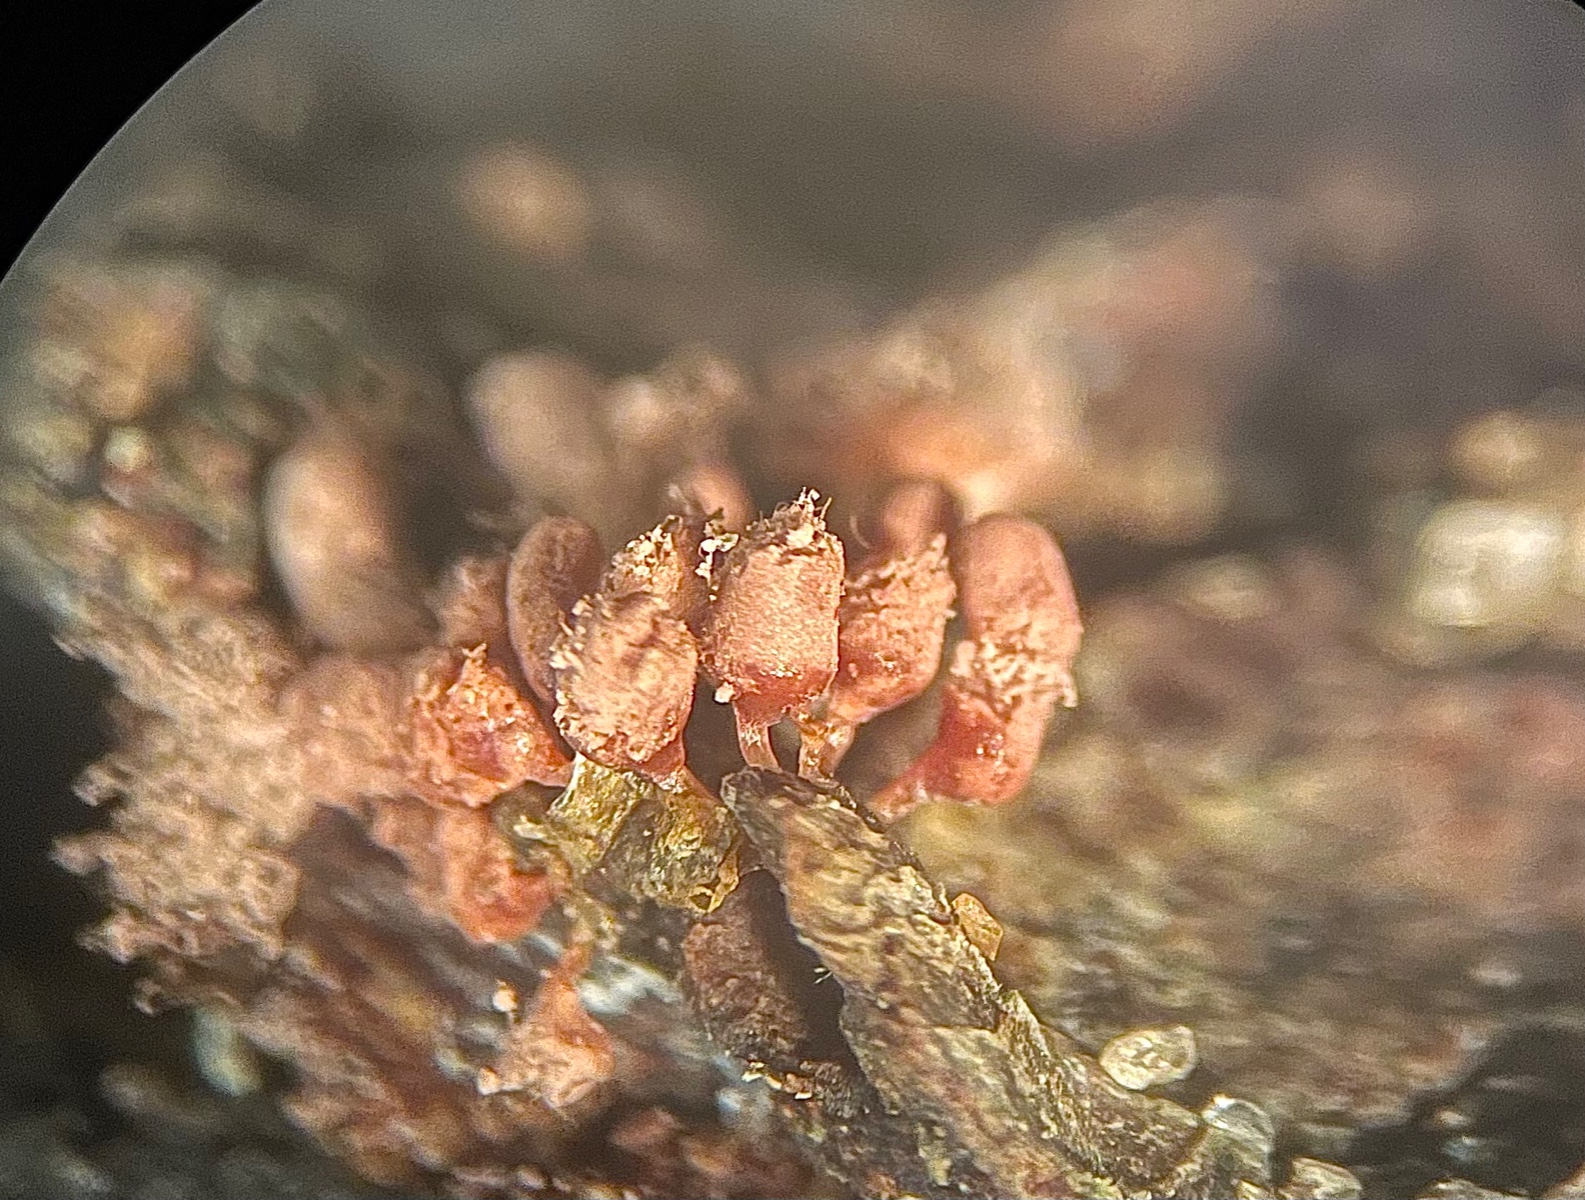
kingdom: Protozoa
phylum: Amoebozoa
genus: Arcyria
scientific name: Arcyria
